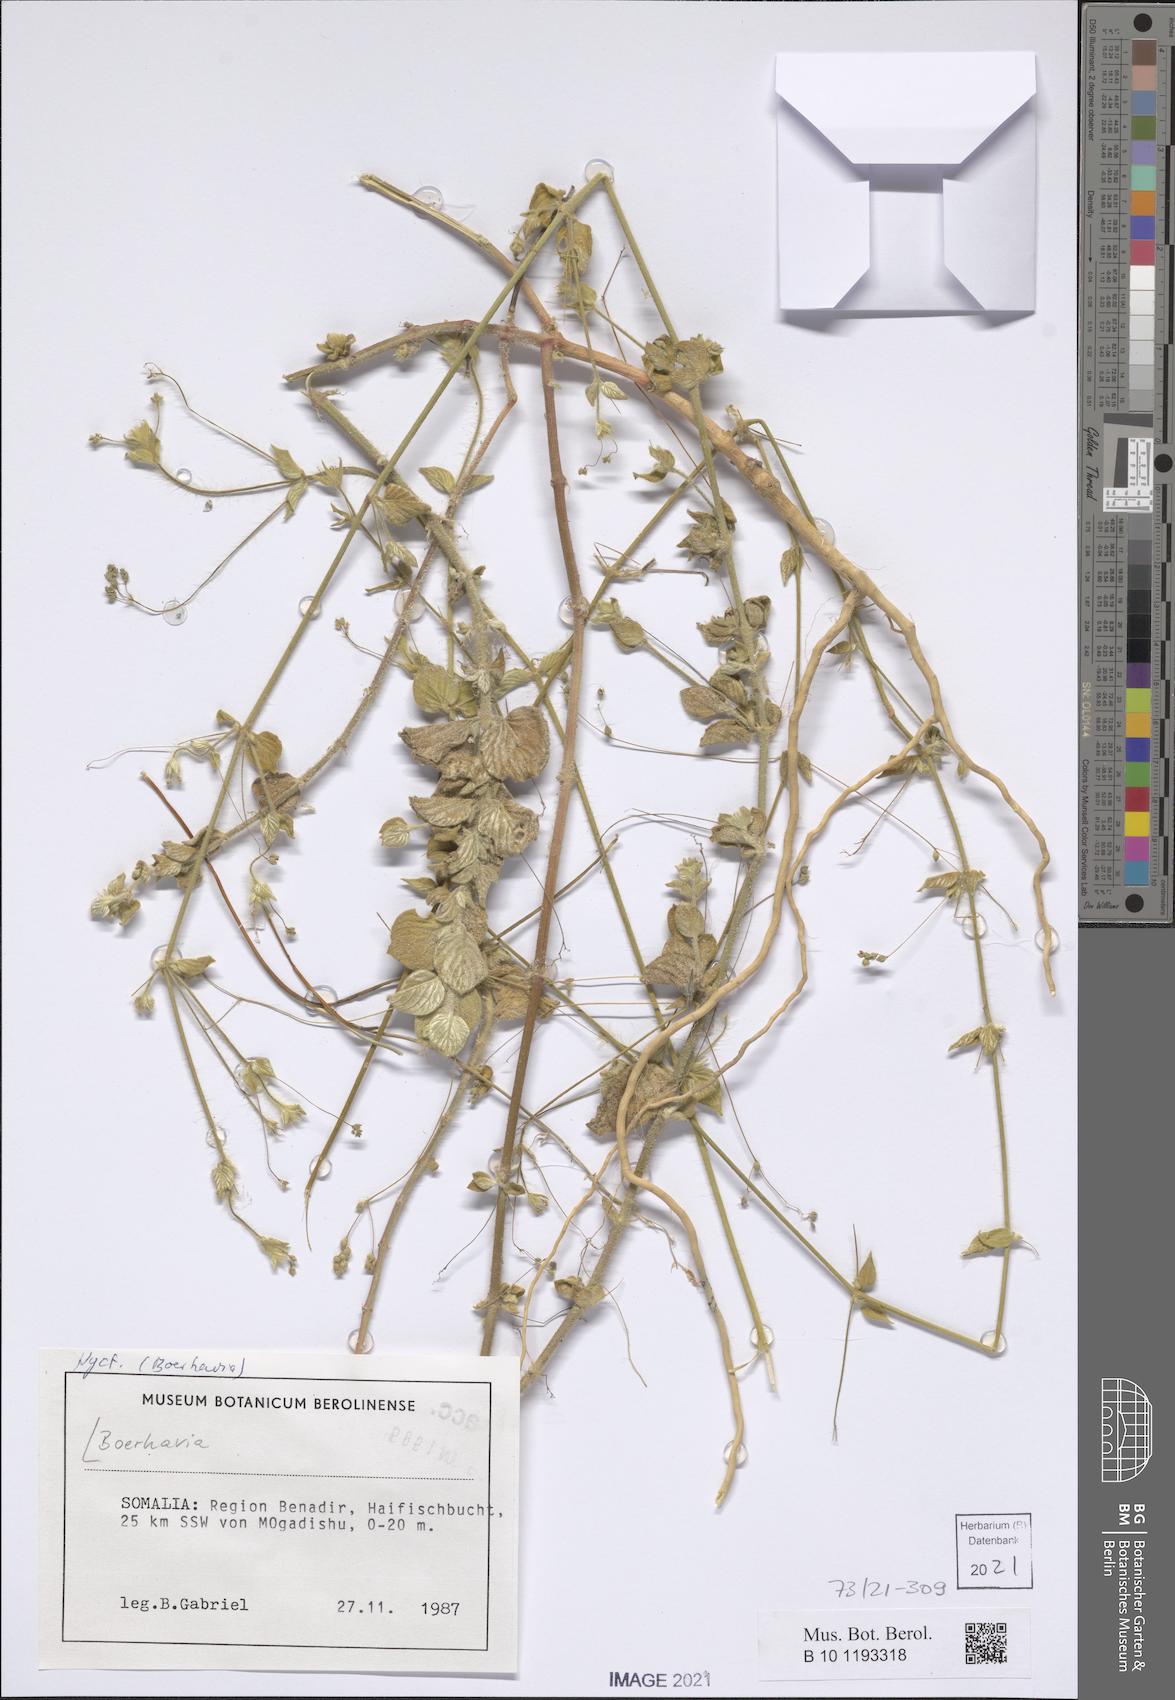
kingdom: Plantae
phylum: Tracheophyta
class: Magnoliopsida
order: Caryophyllales
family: Nyctaginaceae
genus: Boerhavia
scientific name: Boerhavia
